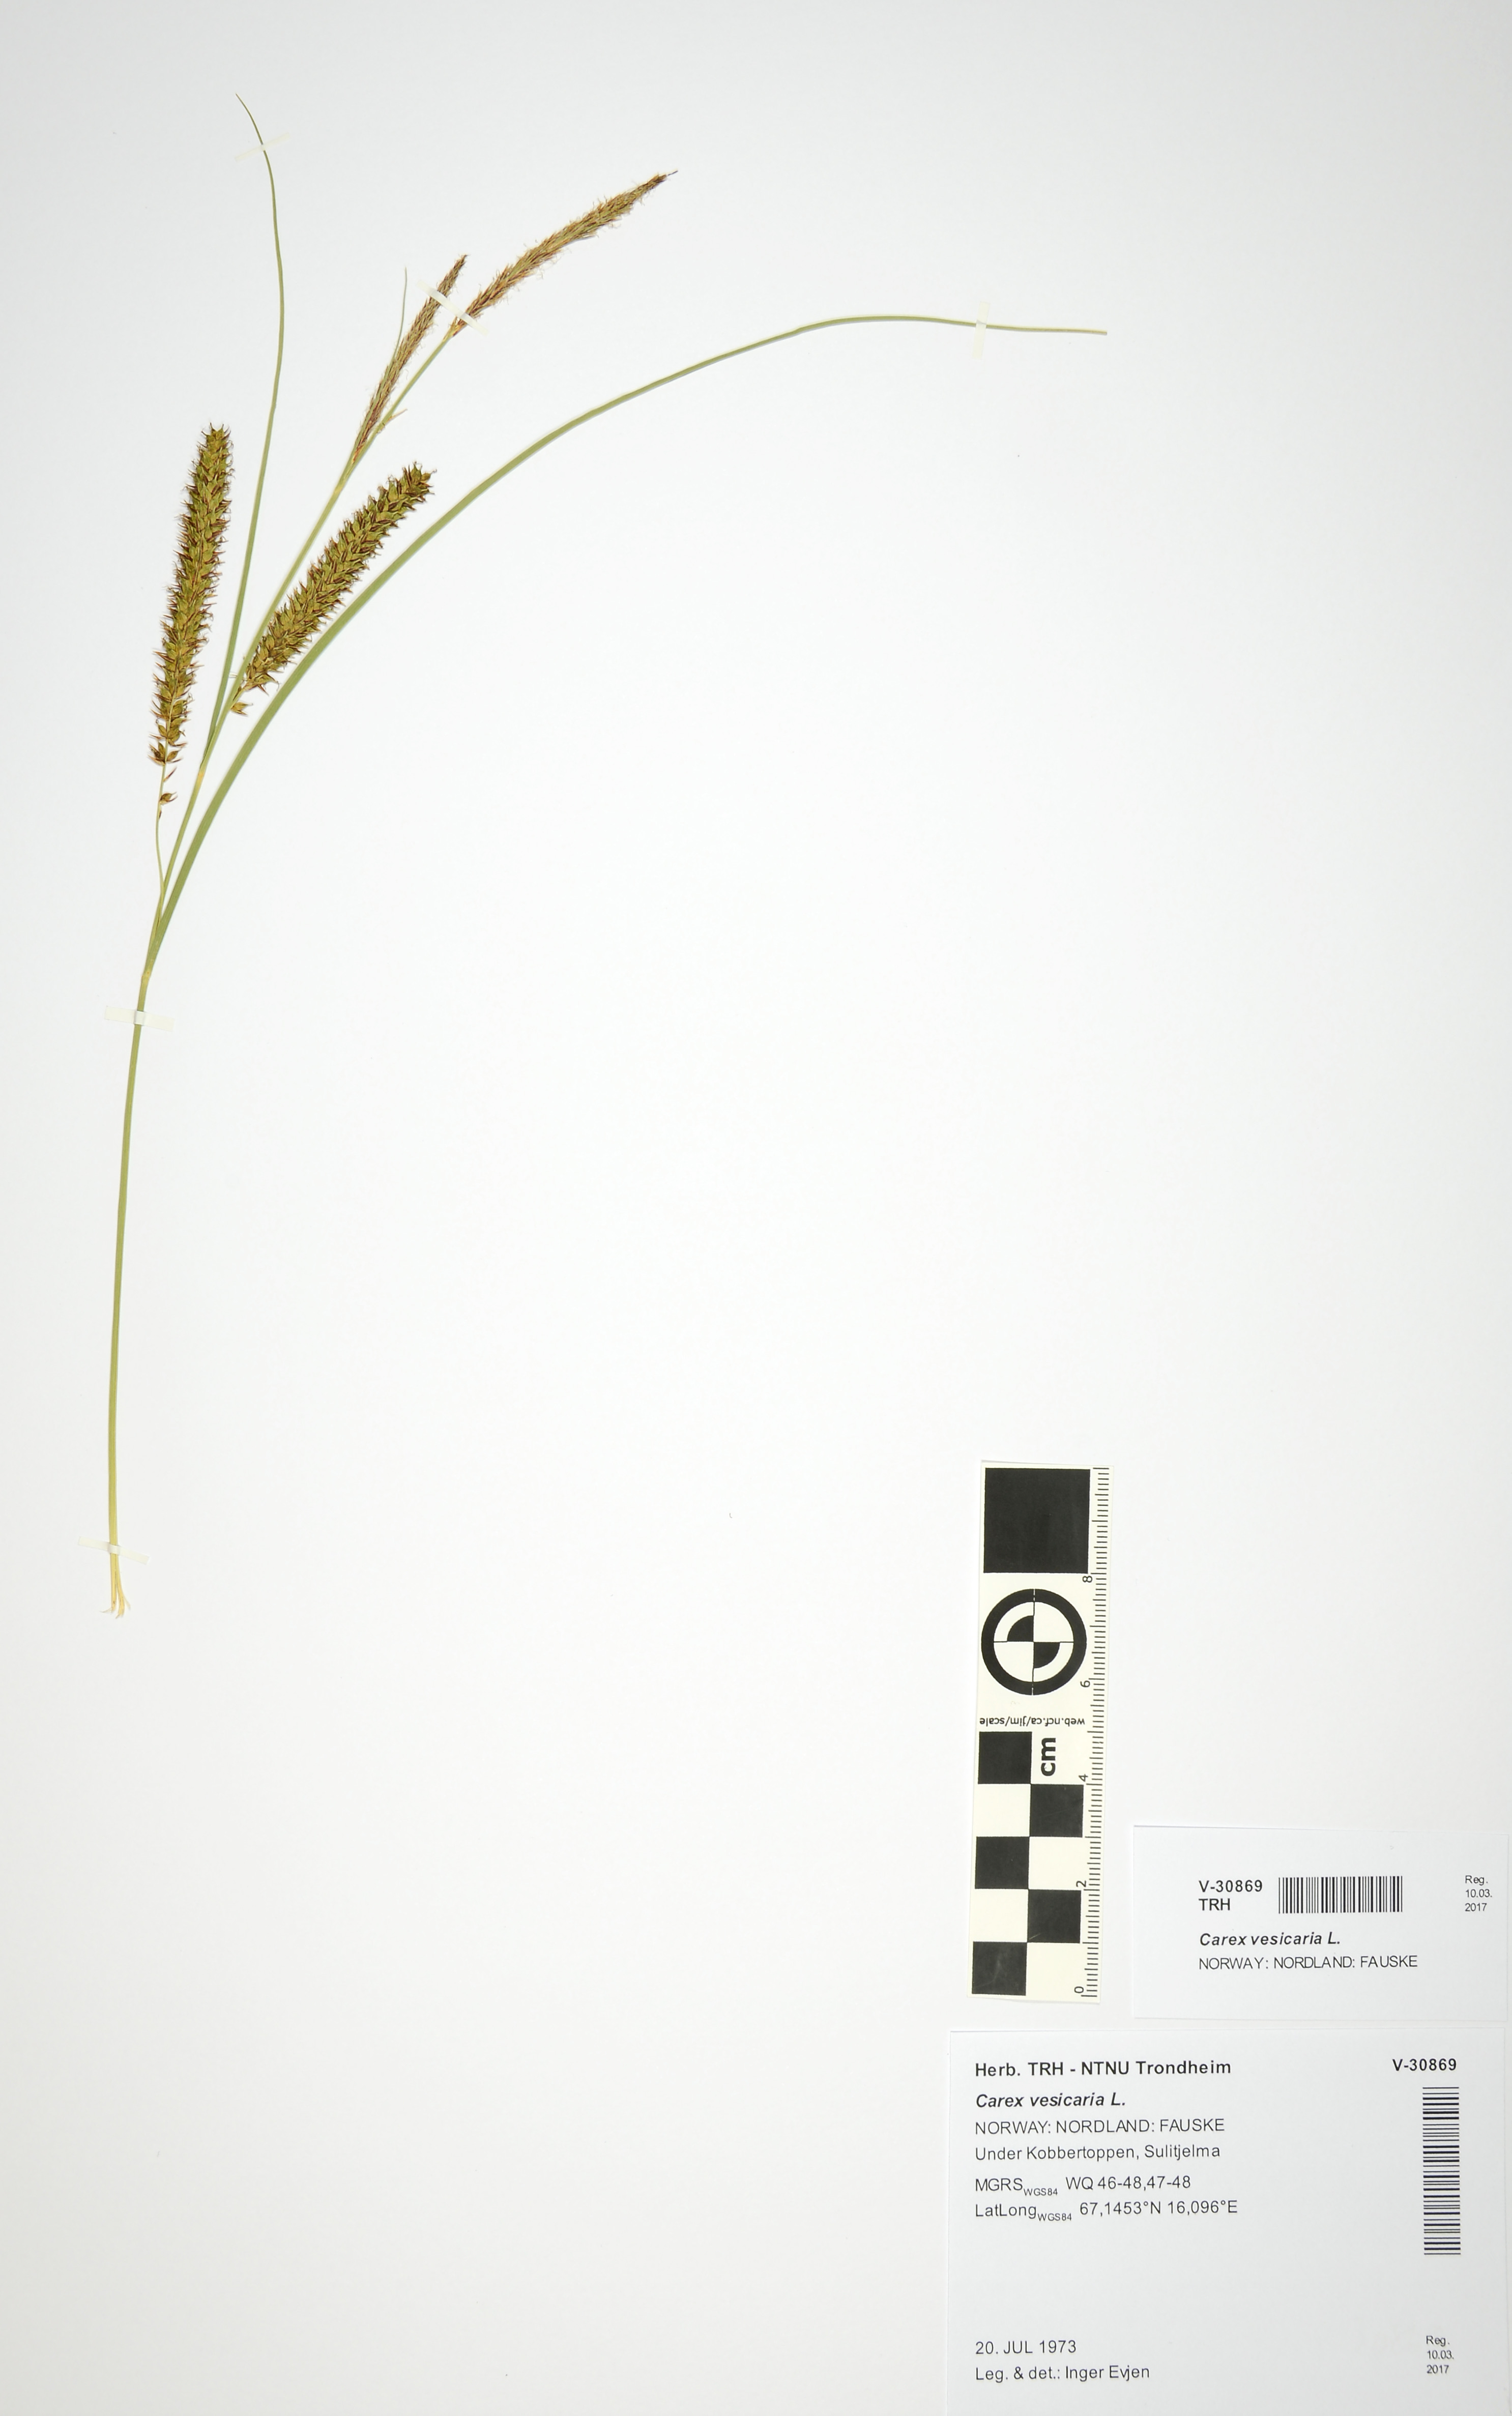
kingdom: Plantae
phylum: Tracheophyta
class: Liliopsida
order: Poales
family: Cyperaceae
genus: Carex
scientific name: Carex vesicaria
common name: Bladder-sedge
